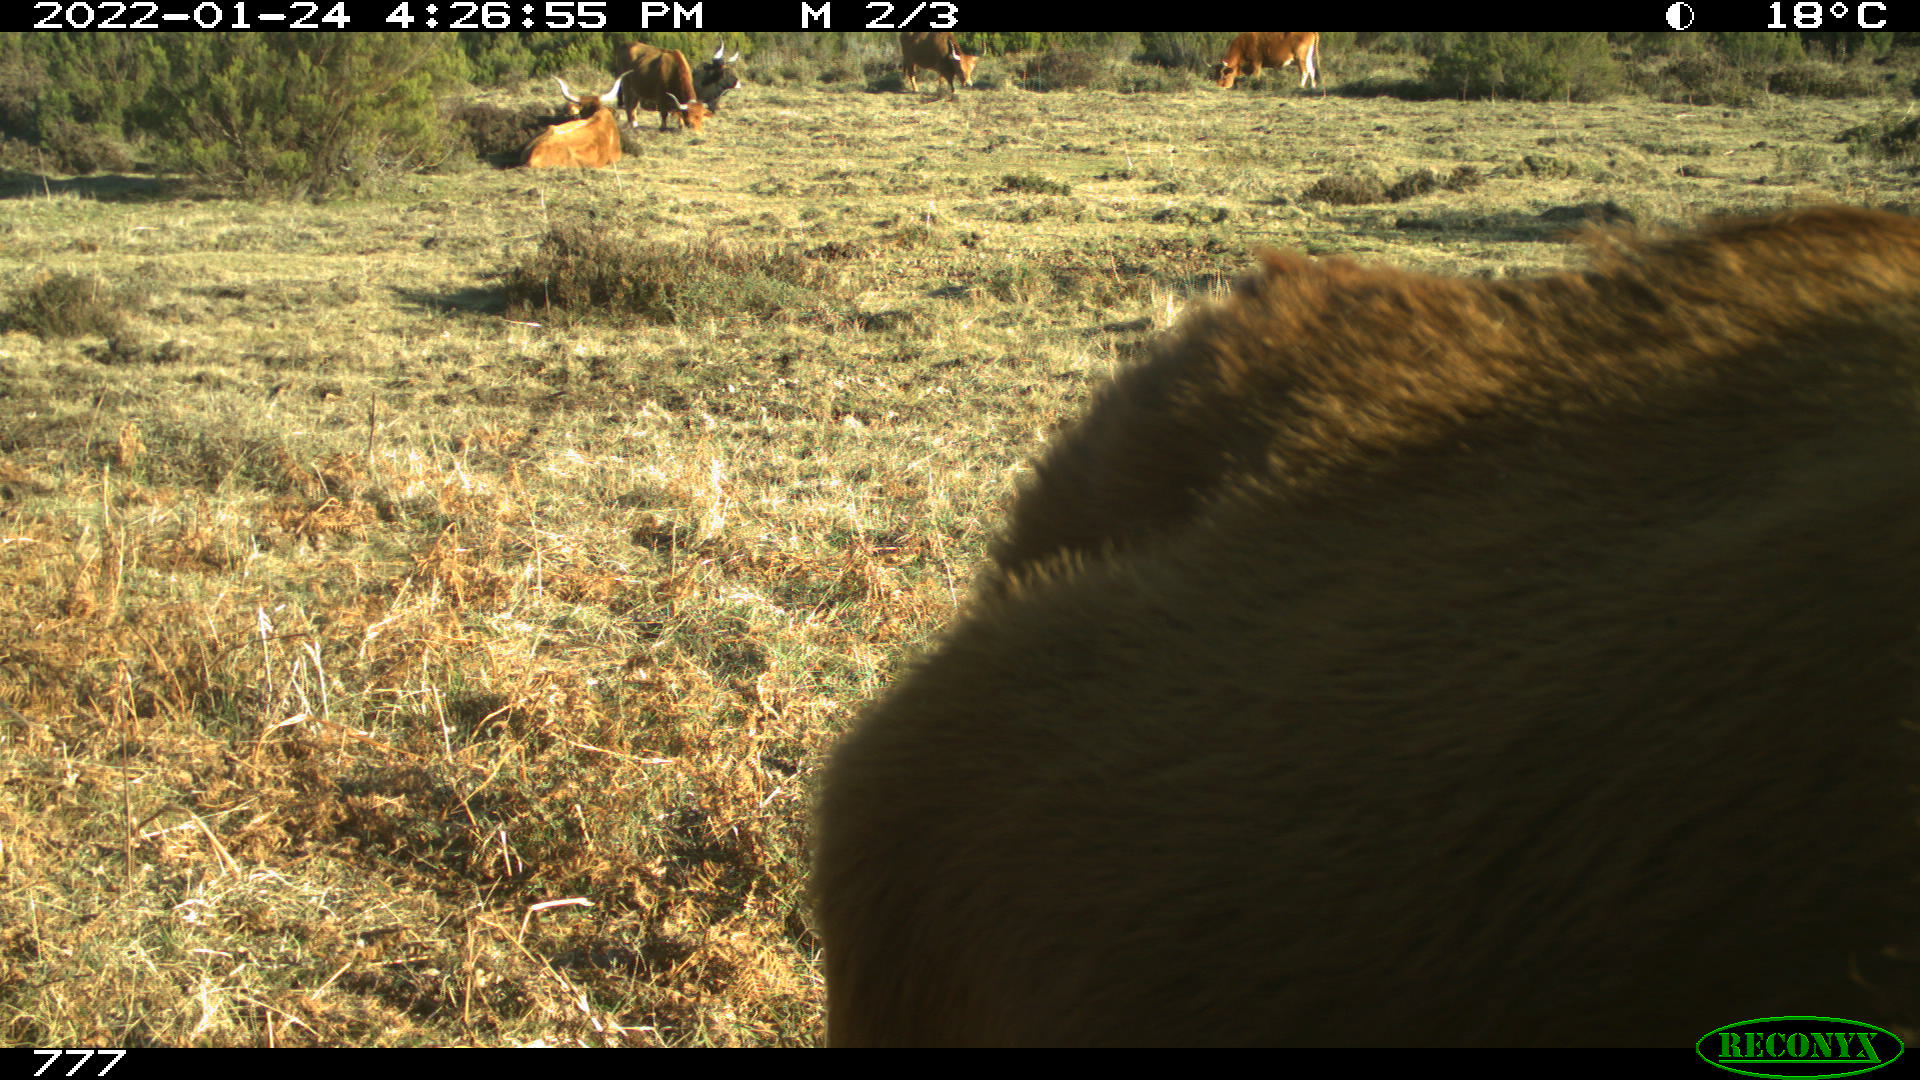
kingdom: Animalia
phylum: Chordata
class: Mammalia
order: Artiodactyla
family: Bovidae
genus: Bos
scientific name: Bos taurus
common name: Domesticated cattle
